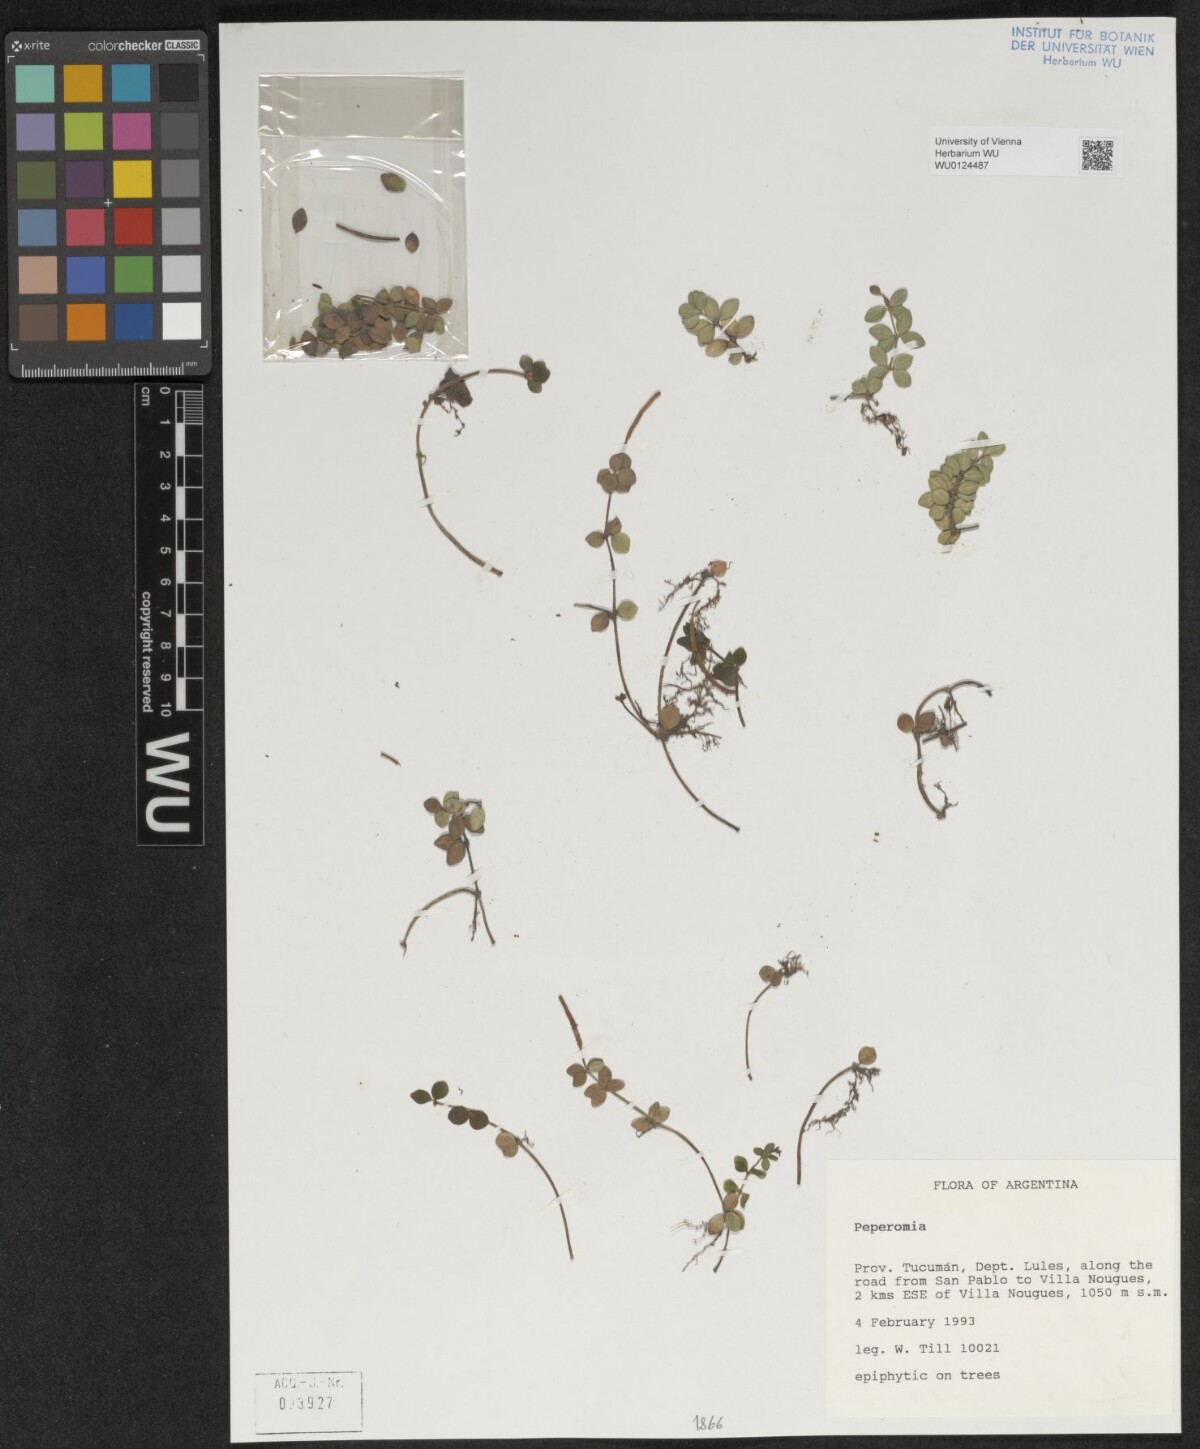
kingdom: Plantae
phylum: Tracheophyta
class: Magnoliopsida
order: Piperales
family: Piperaceae
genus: Peperomia
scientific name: Peperomia
